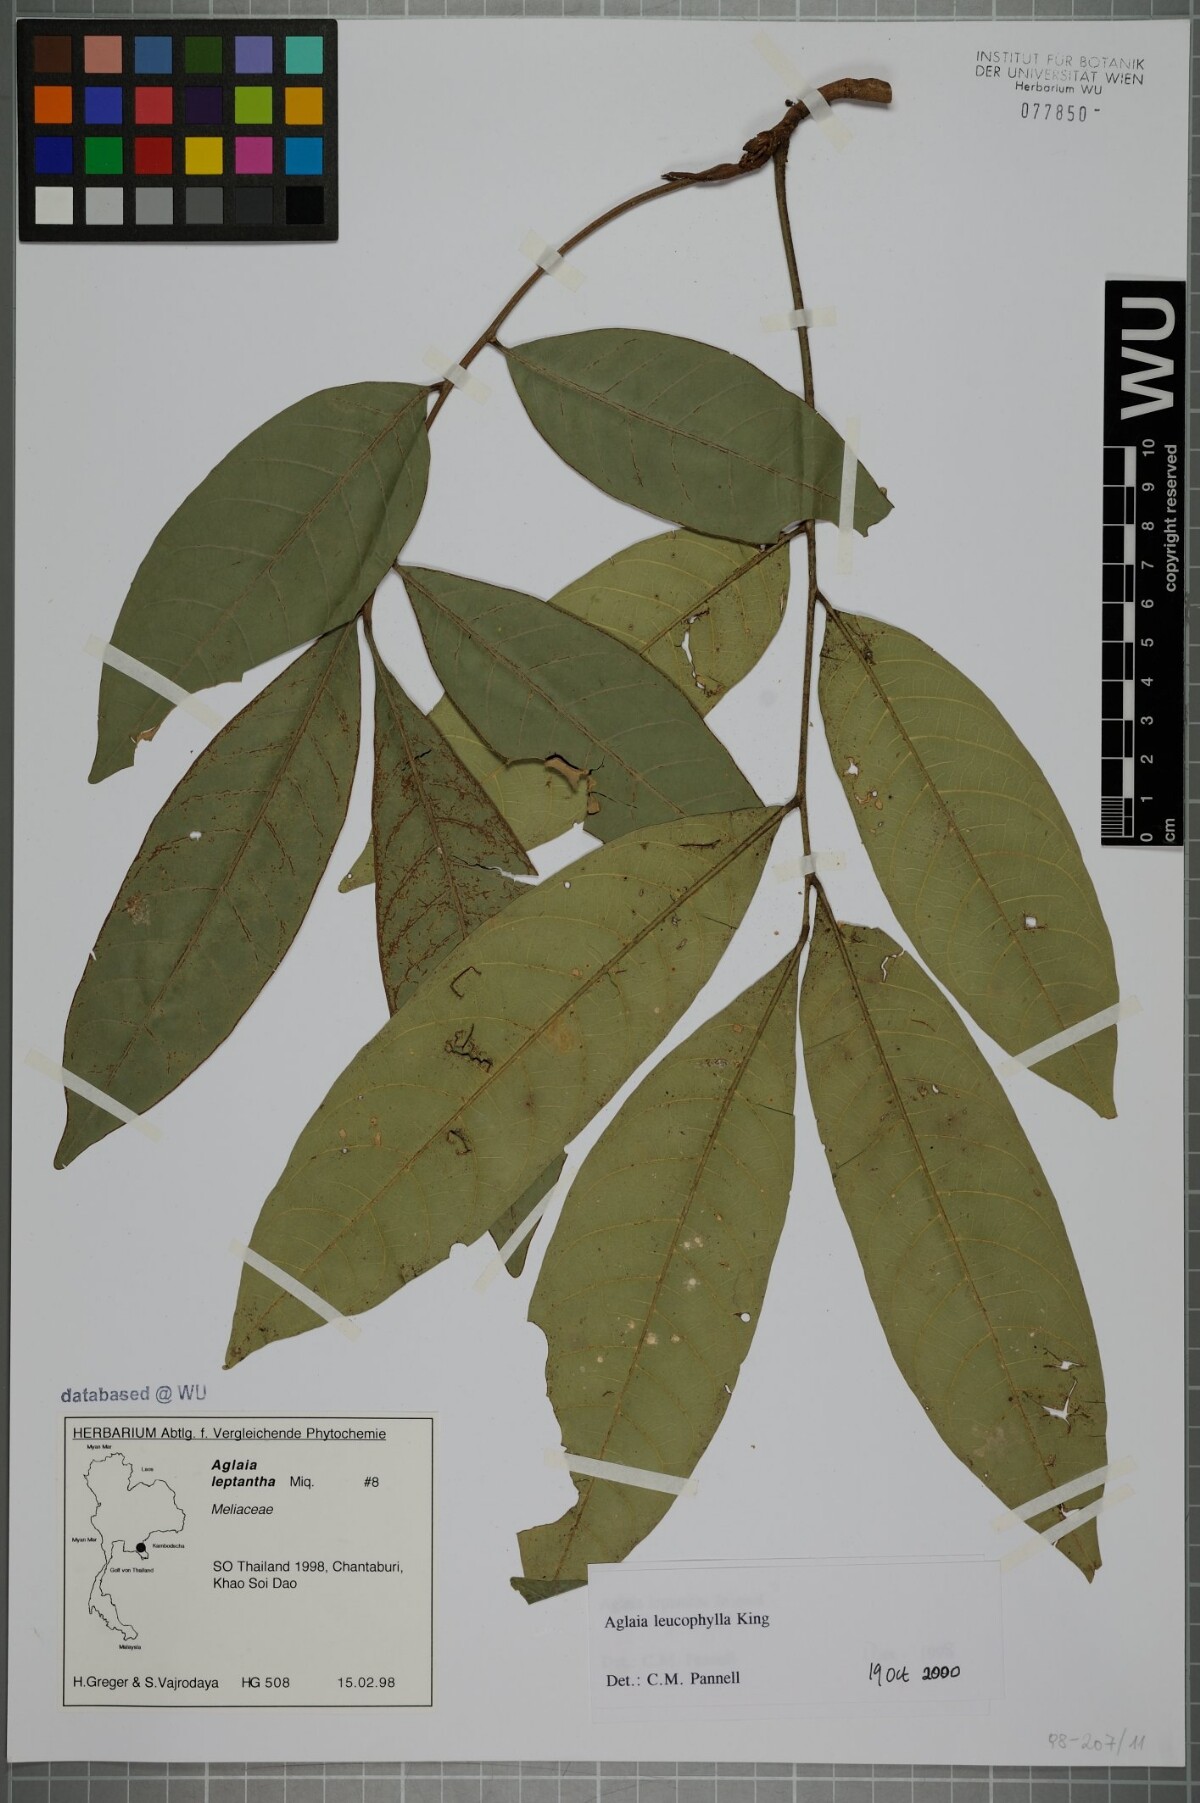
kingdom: Plantae
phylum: Tracheophyta
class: Magnoliopsida
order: Sapindales
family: Meliaceae
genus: Aglaia
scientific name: Aglaia leucophylla
